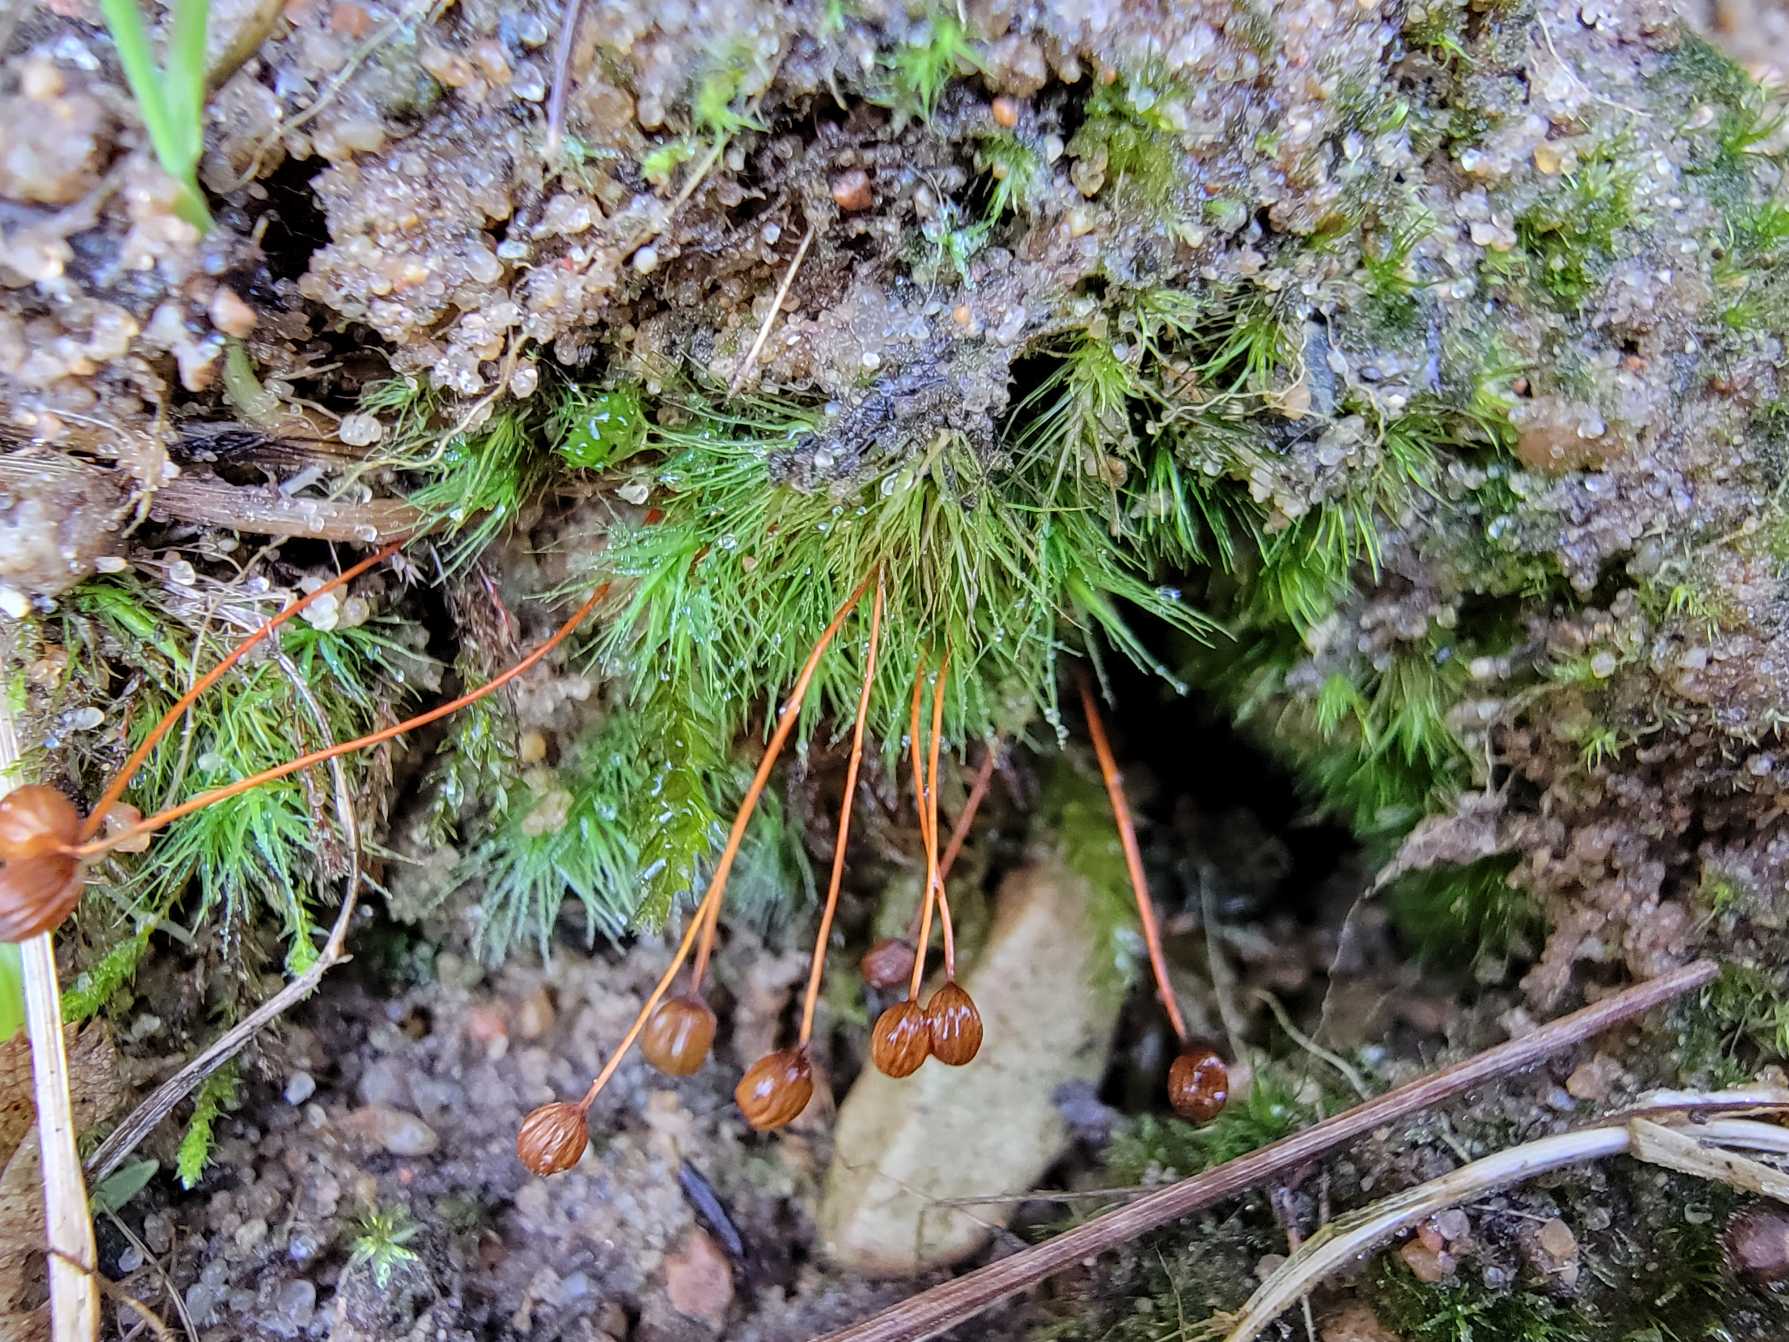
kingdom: Plantae
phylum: Bryophyta
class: Bryopsida
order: Bartramiales
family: Bartramiaceae
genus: Bartramia
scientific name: Bartramia ithyphylla
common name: Blågrøn kuglekapsel
